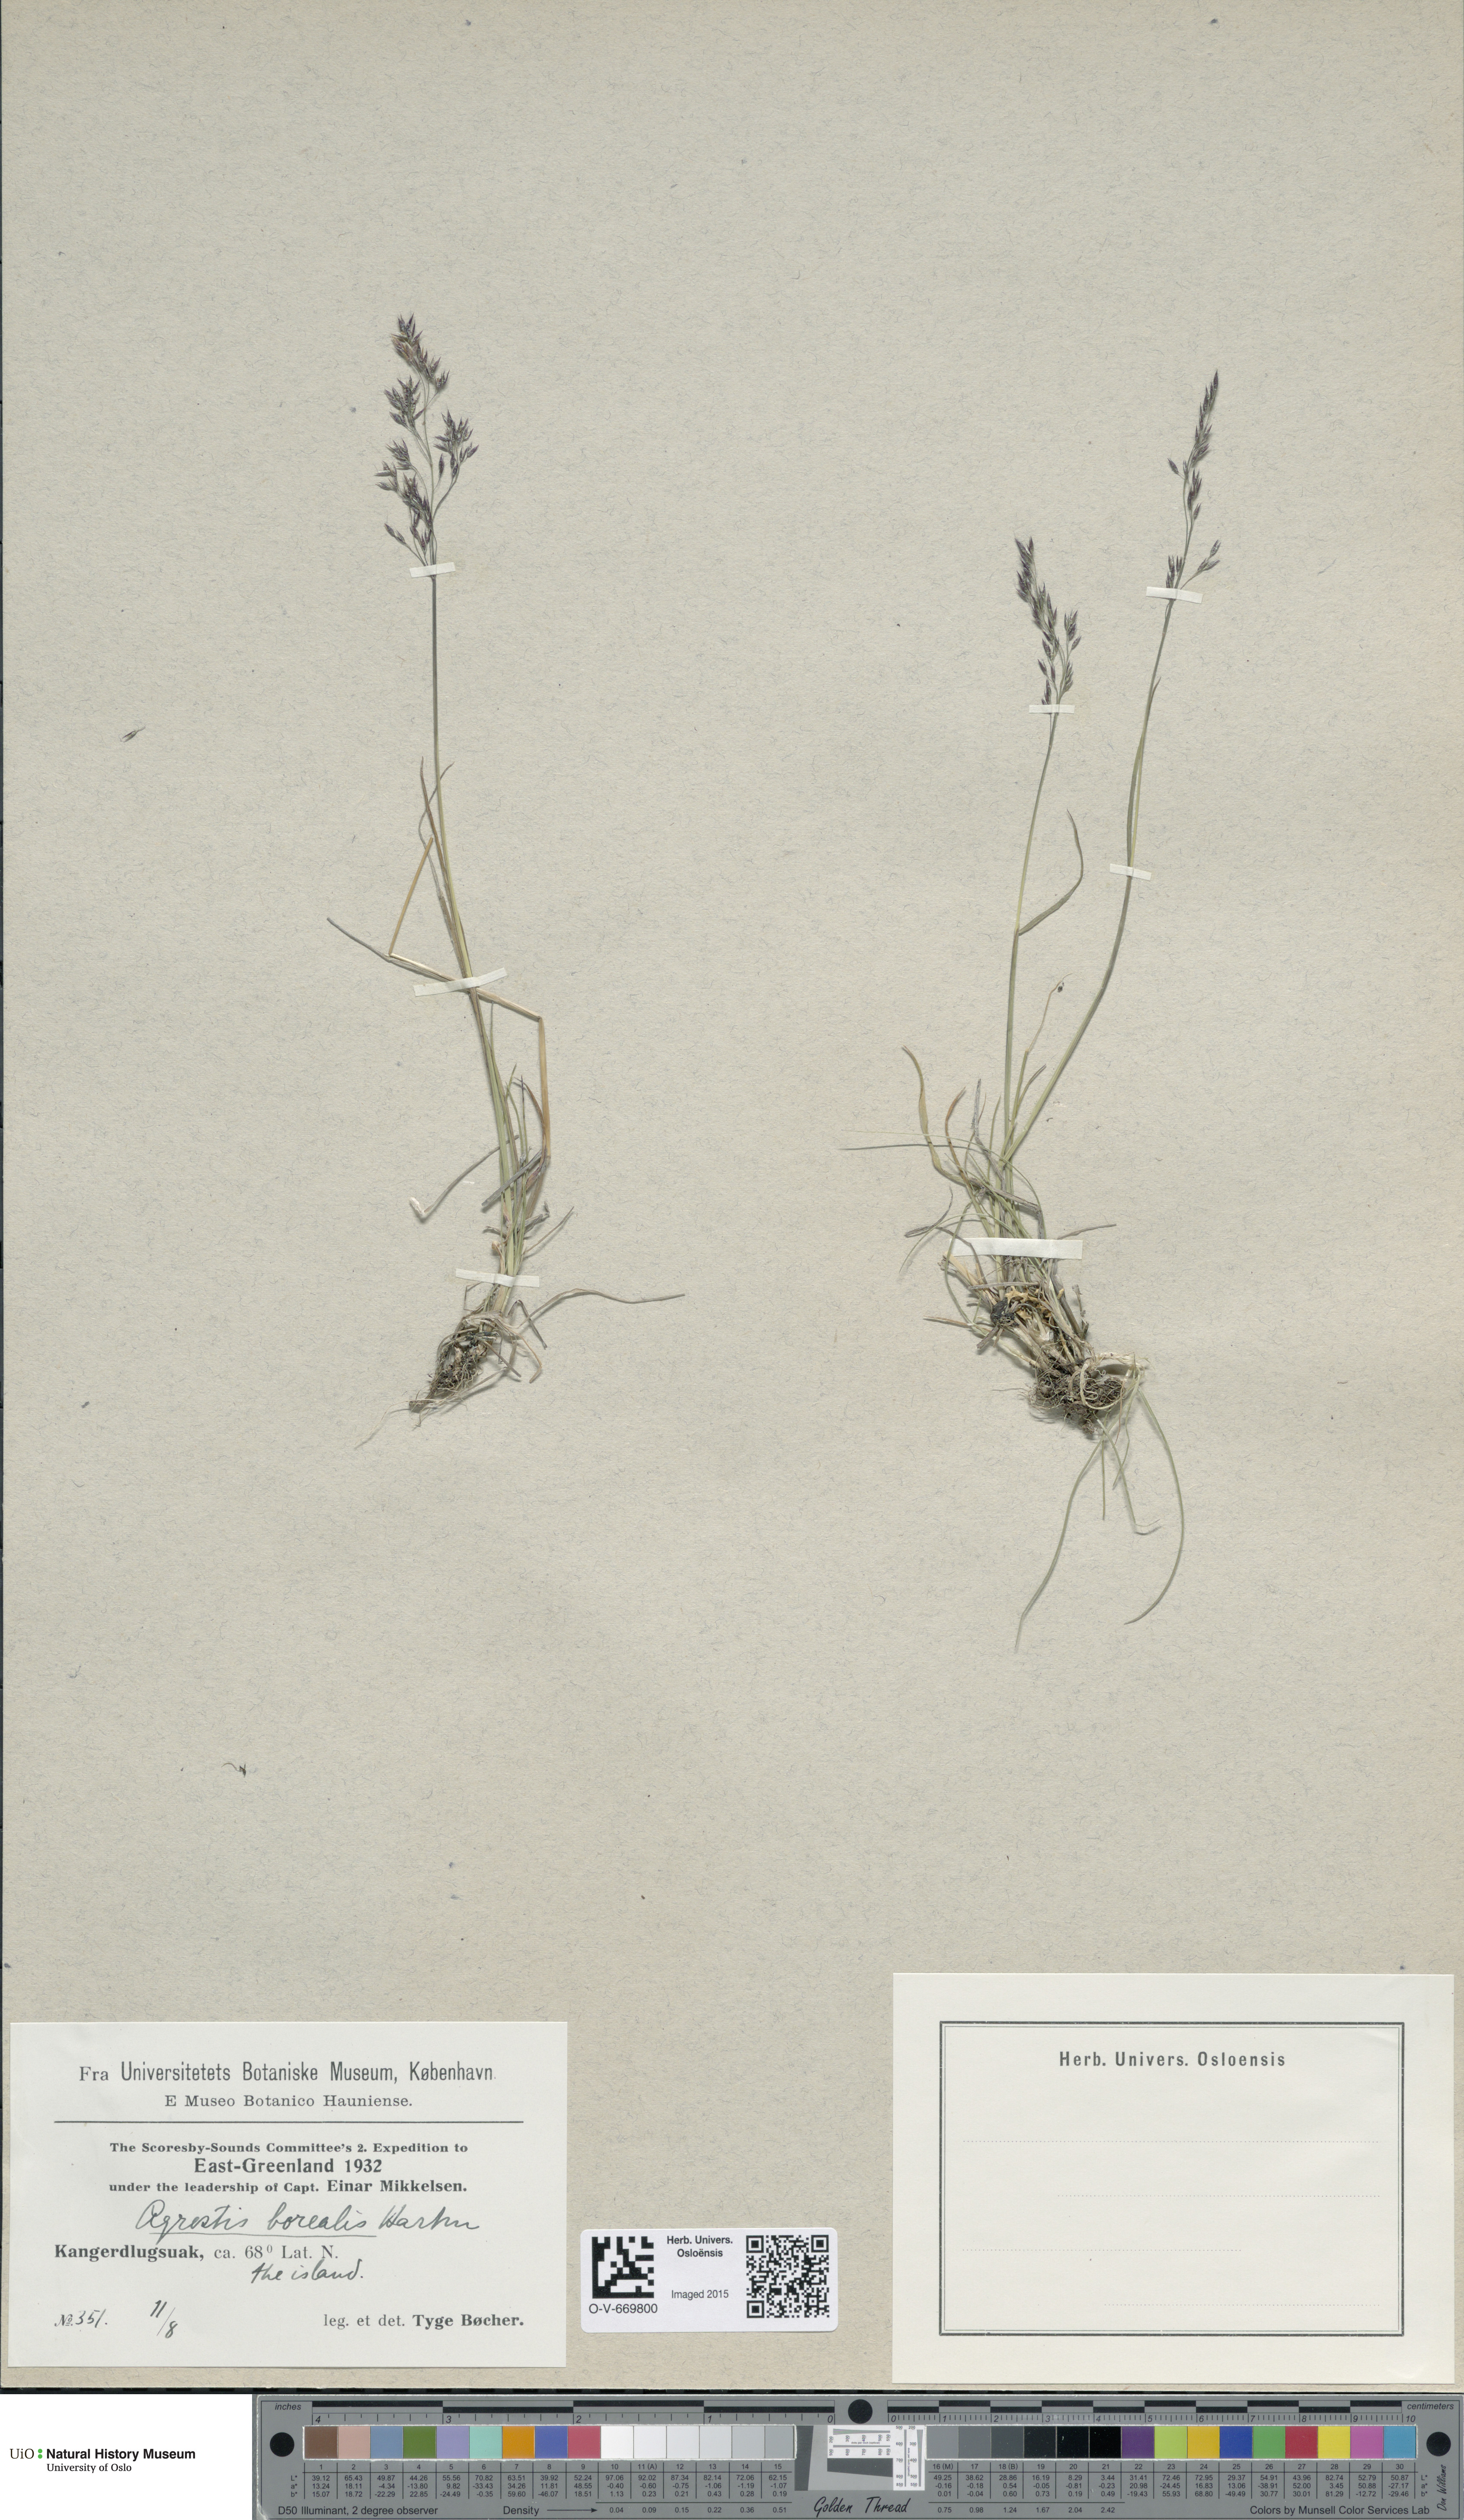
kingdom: Plantae
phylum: Tracheophyta
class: Liliopsida
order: Poales
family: Poaceae
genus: Agrostis
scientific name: Agrostis mertensii
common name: Northern bent
